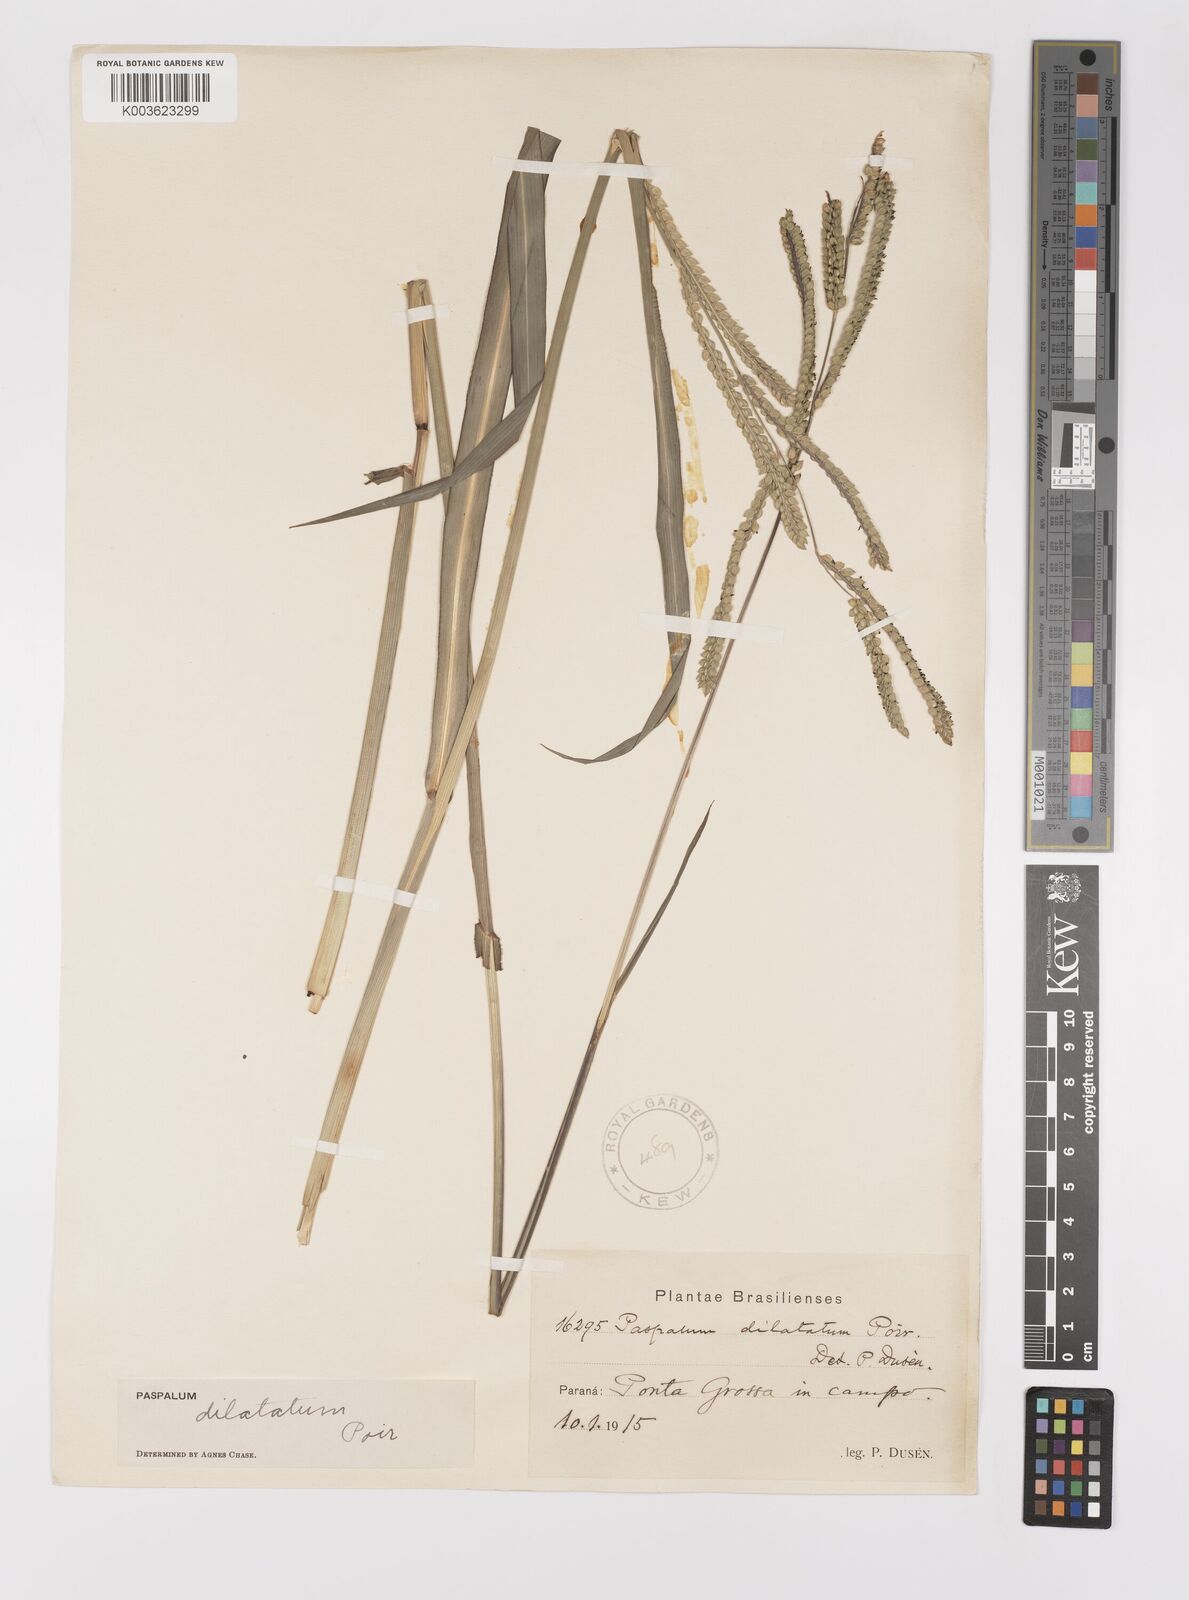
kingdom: Plantae
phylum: Tracheophyta
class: Liliopsida
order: Poales
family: Poaceae
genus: Paspalum
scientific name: Paspalum dilatatum
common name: Dallisgrass
